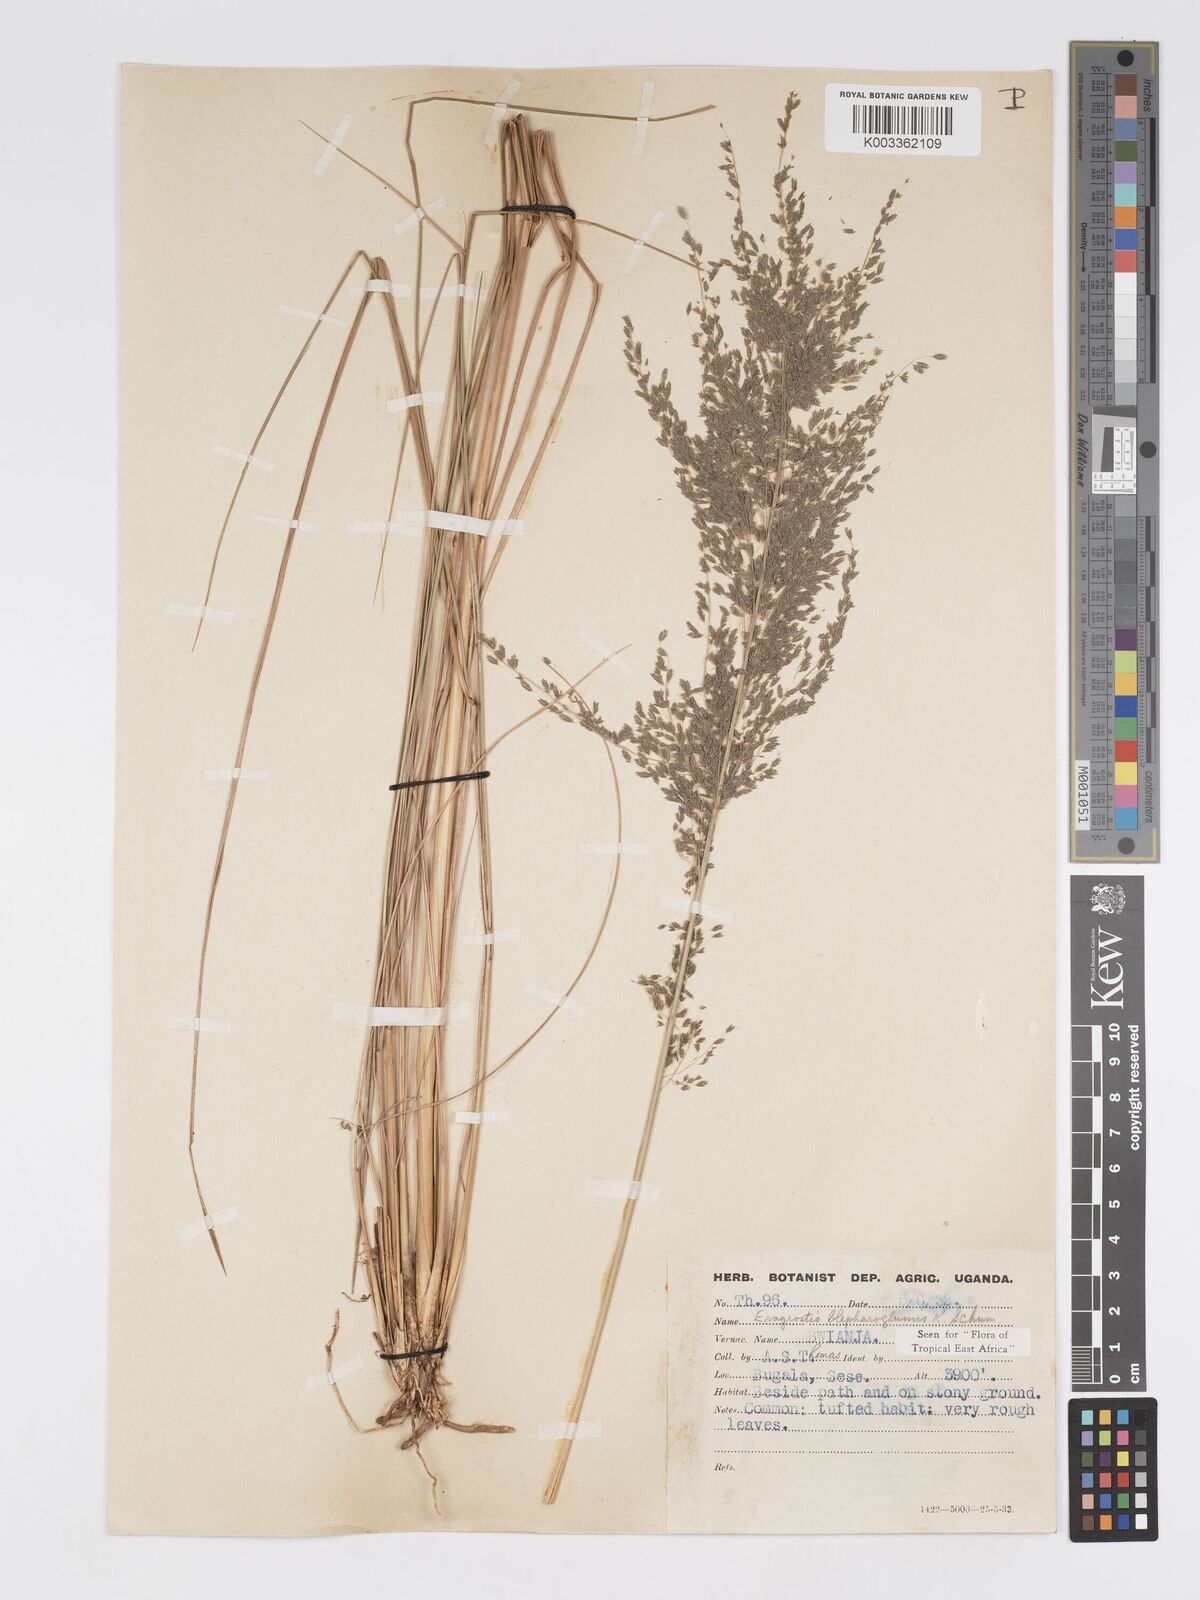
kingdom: Plantae
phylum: Tracheophyta
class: Liliopsida
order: Poales
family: Poaceae
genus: Eragrostis
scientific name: Eragrostis olivacea
